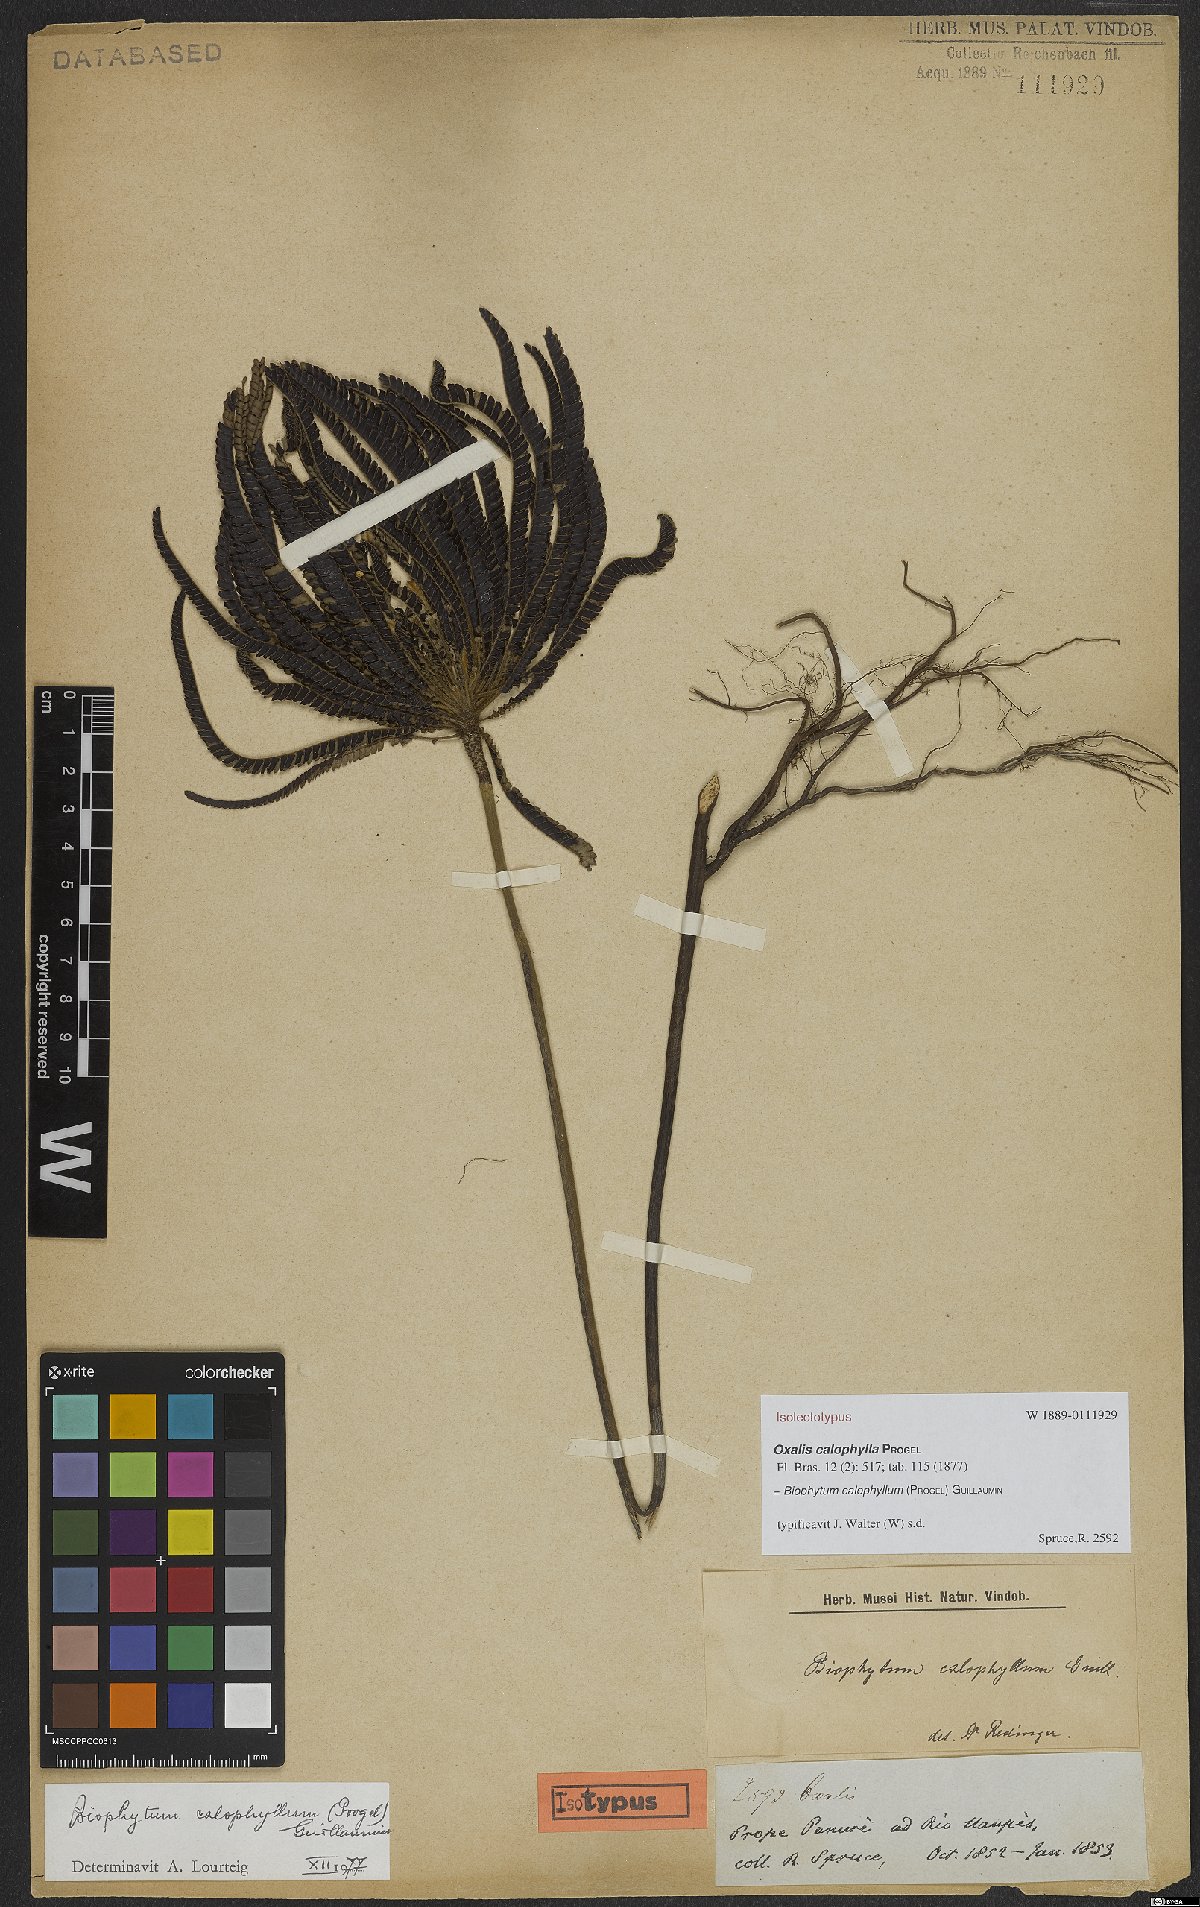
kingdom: Plantae
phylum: Tracheophyta
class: Magnoliopsida
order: Oxalidales
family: Oxalidaceae
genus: Biophytum
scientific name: Biophytum calophyllum
